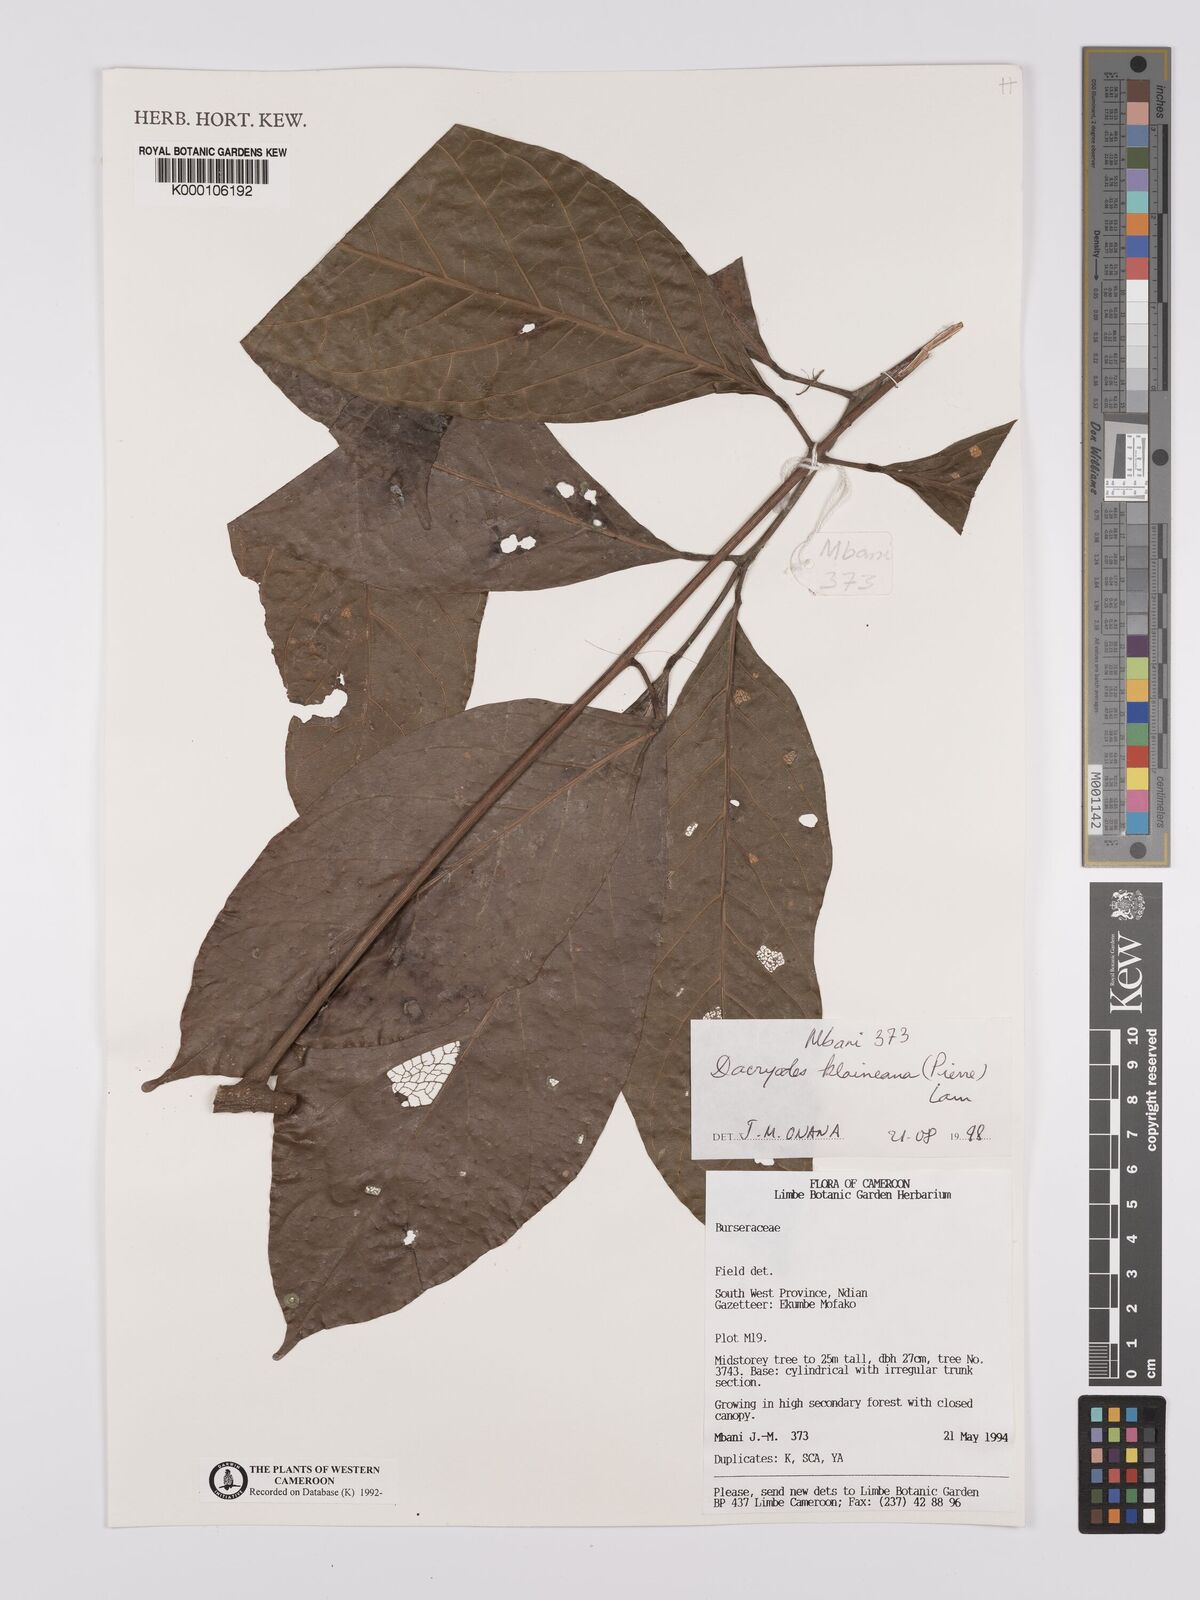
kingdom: Plantae
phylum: Tracheophyta
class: Magnoliopsida
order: Sapindales
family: Burseraceae
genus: Pachylobus
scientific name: Pachylobus klaineana
